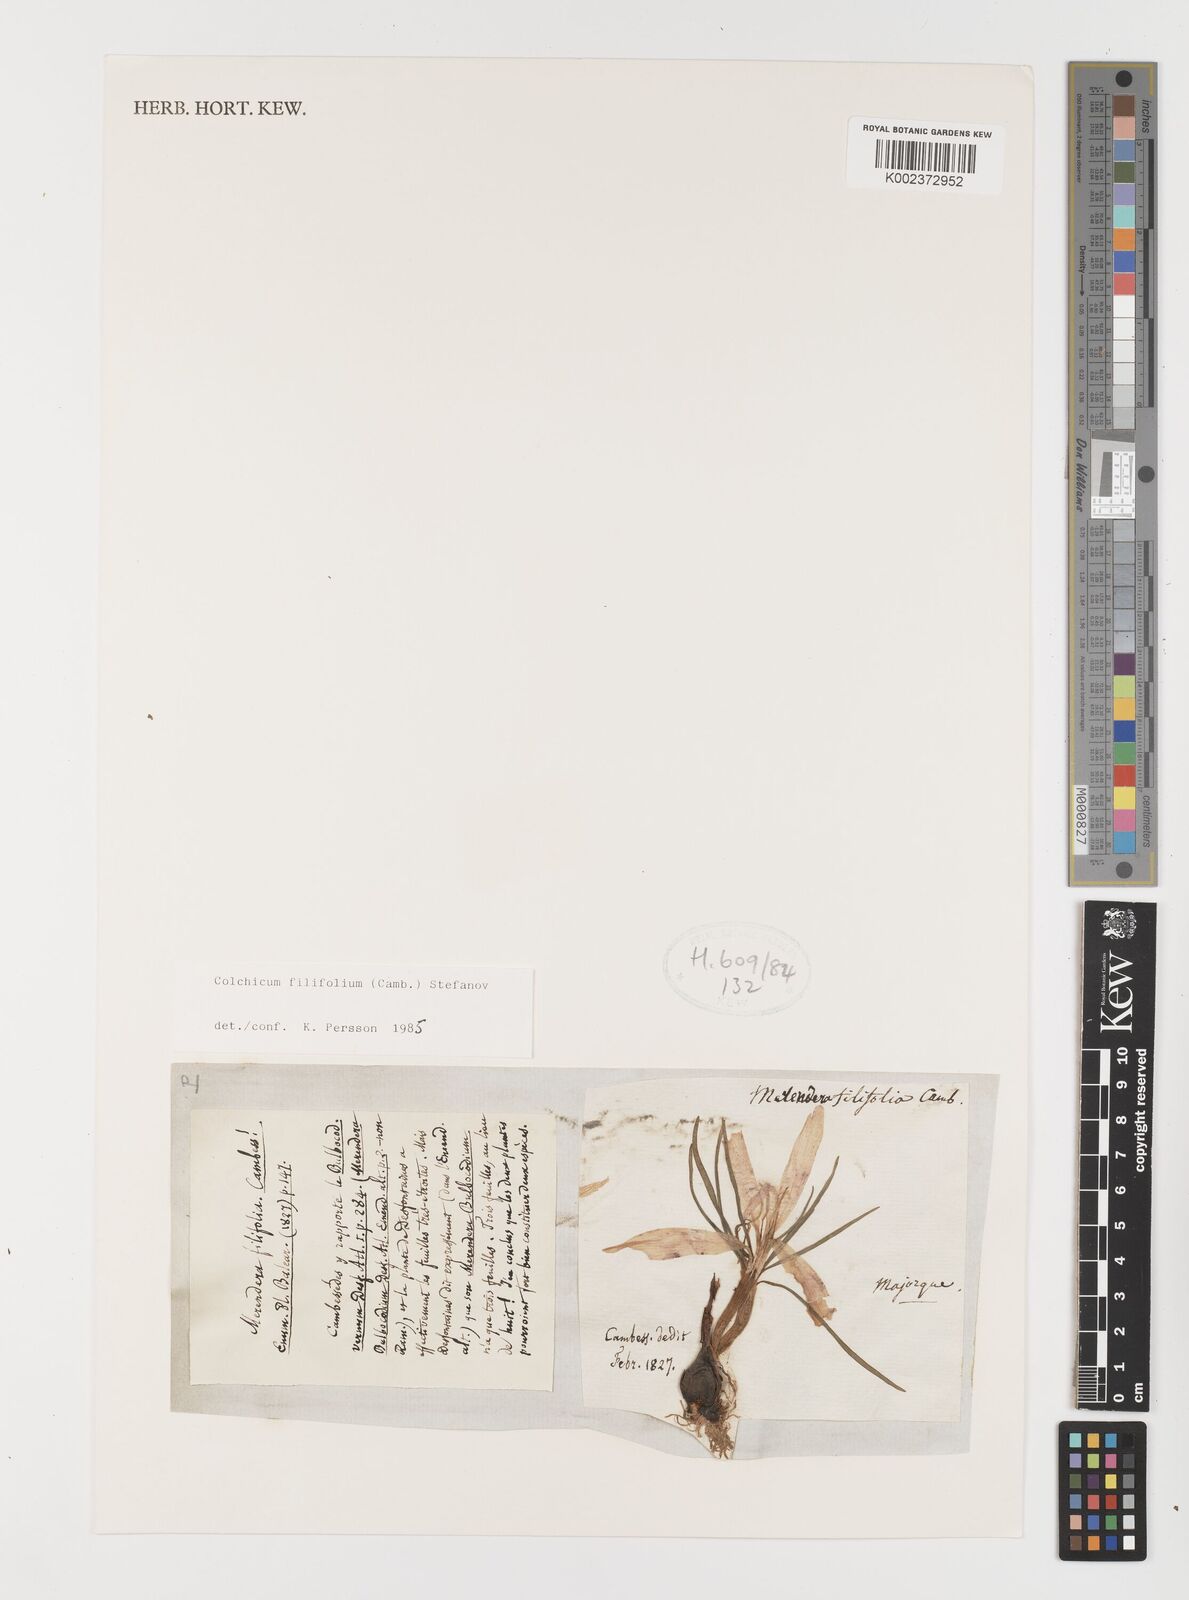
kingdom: Plantae
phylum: Tracheophyta
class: Liliopsida
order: Liliales
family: Colchicaceae
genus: Colchicum
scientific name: Colchicum filifolium
